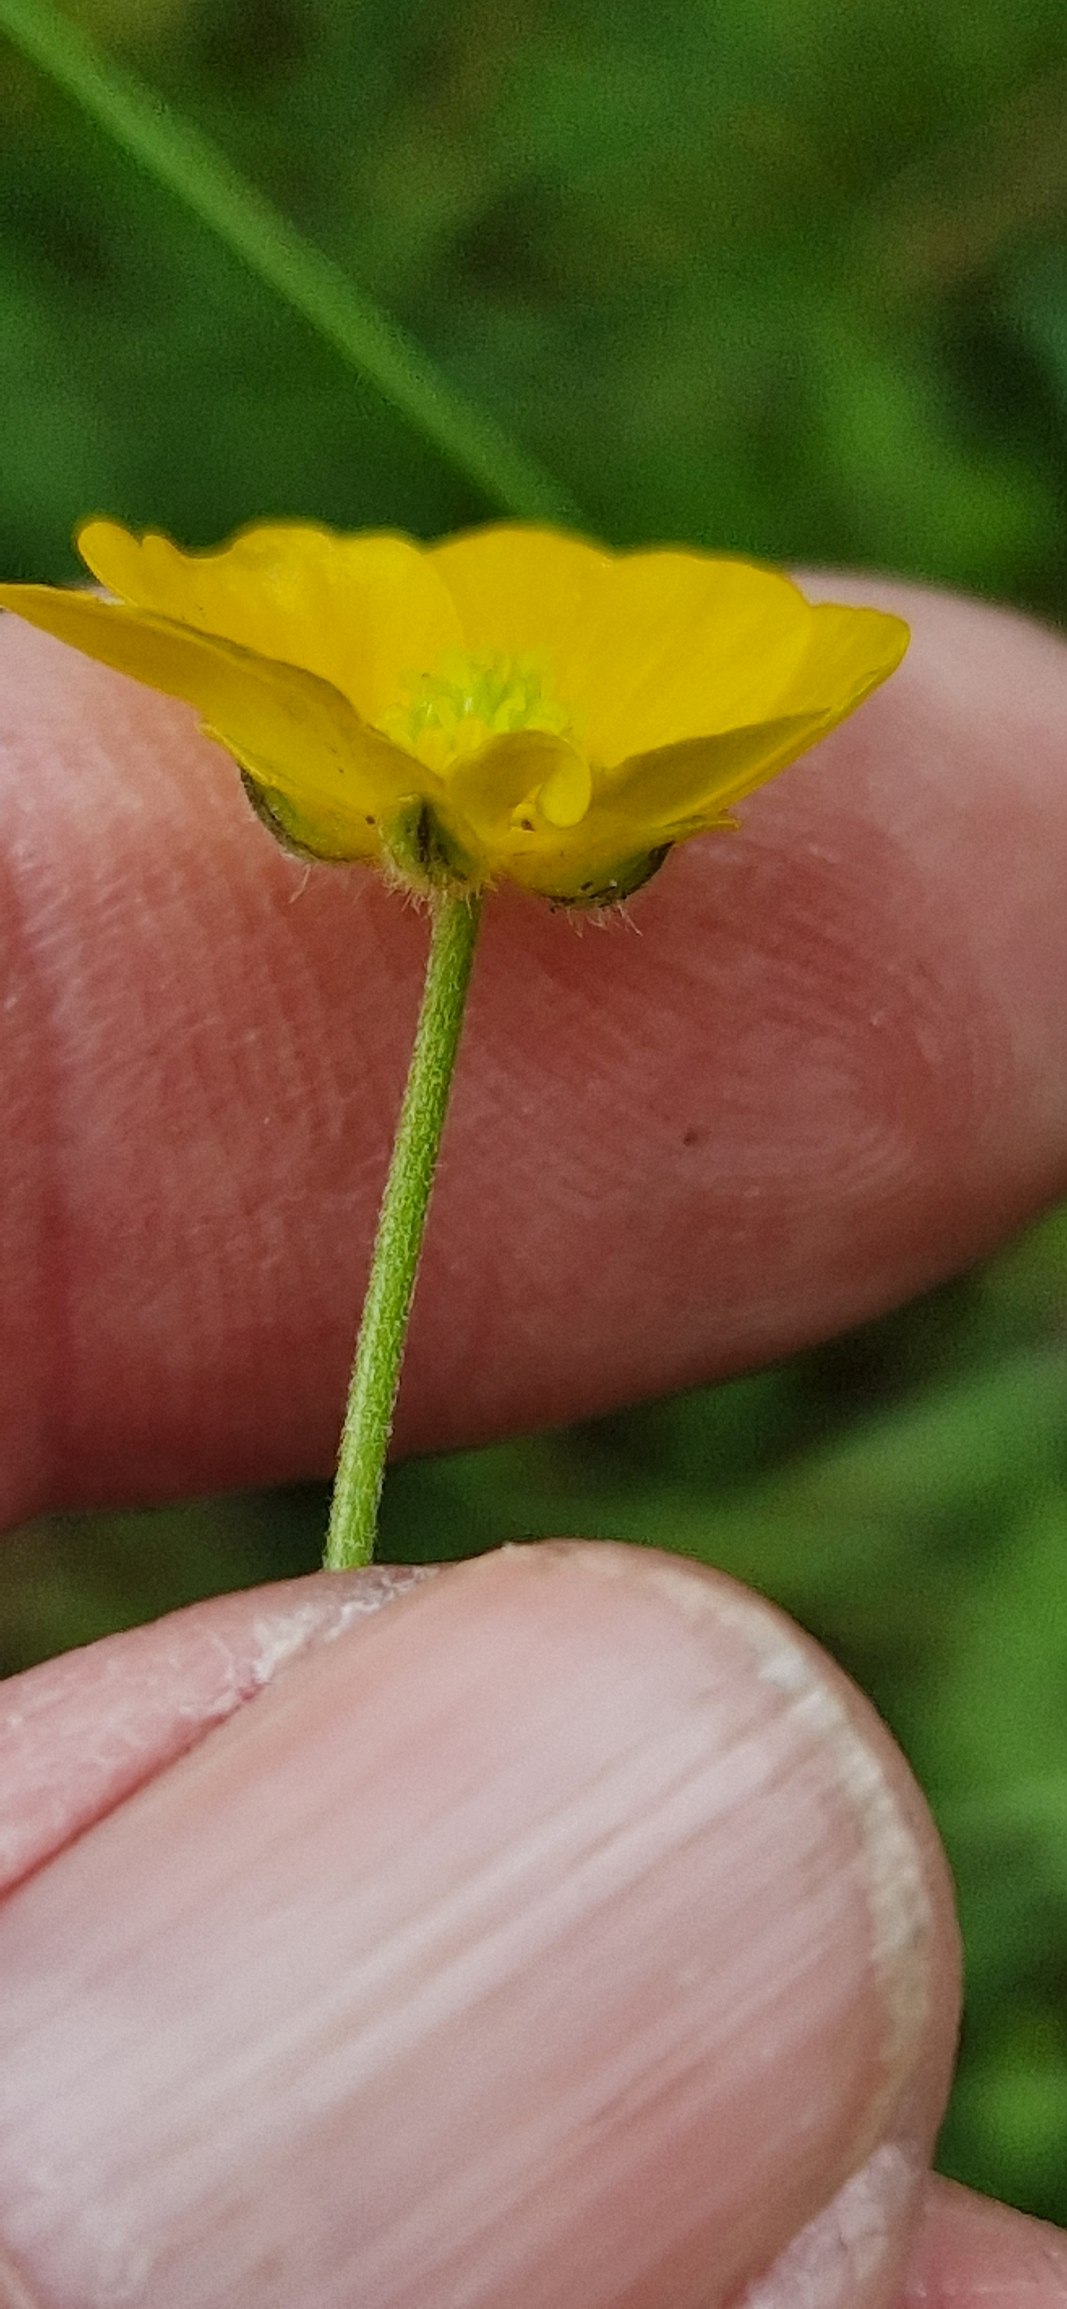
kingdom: Plantae
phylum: Tracheophyta
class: Magnoliopsida
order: Ranunculales
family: Ranunculaceae
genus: Ranunculus
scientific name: Ranunculus acris
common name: Bidende ranunkel
